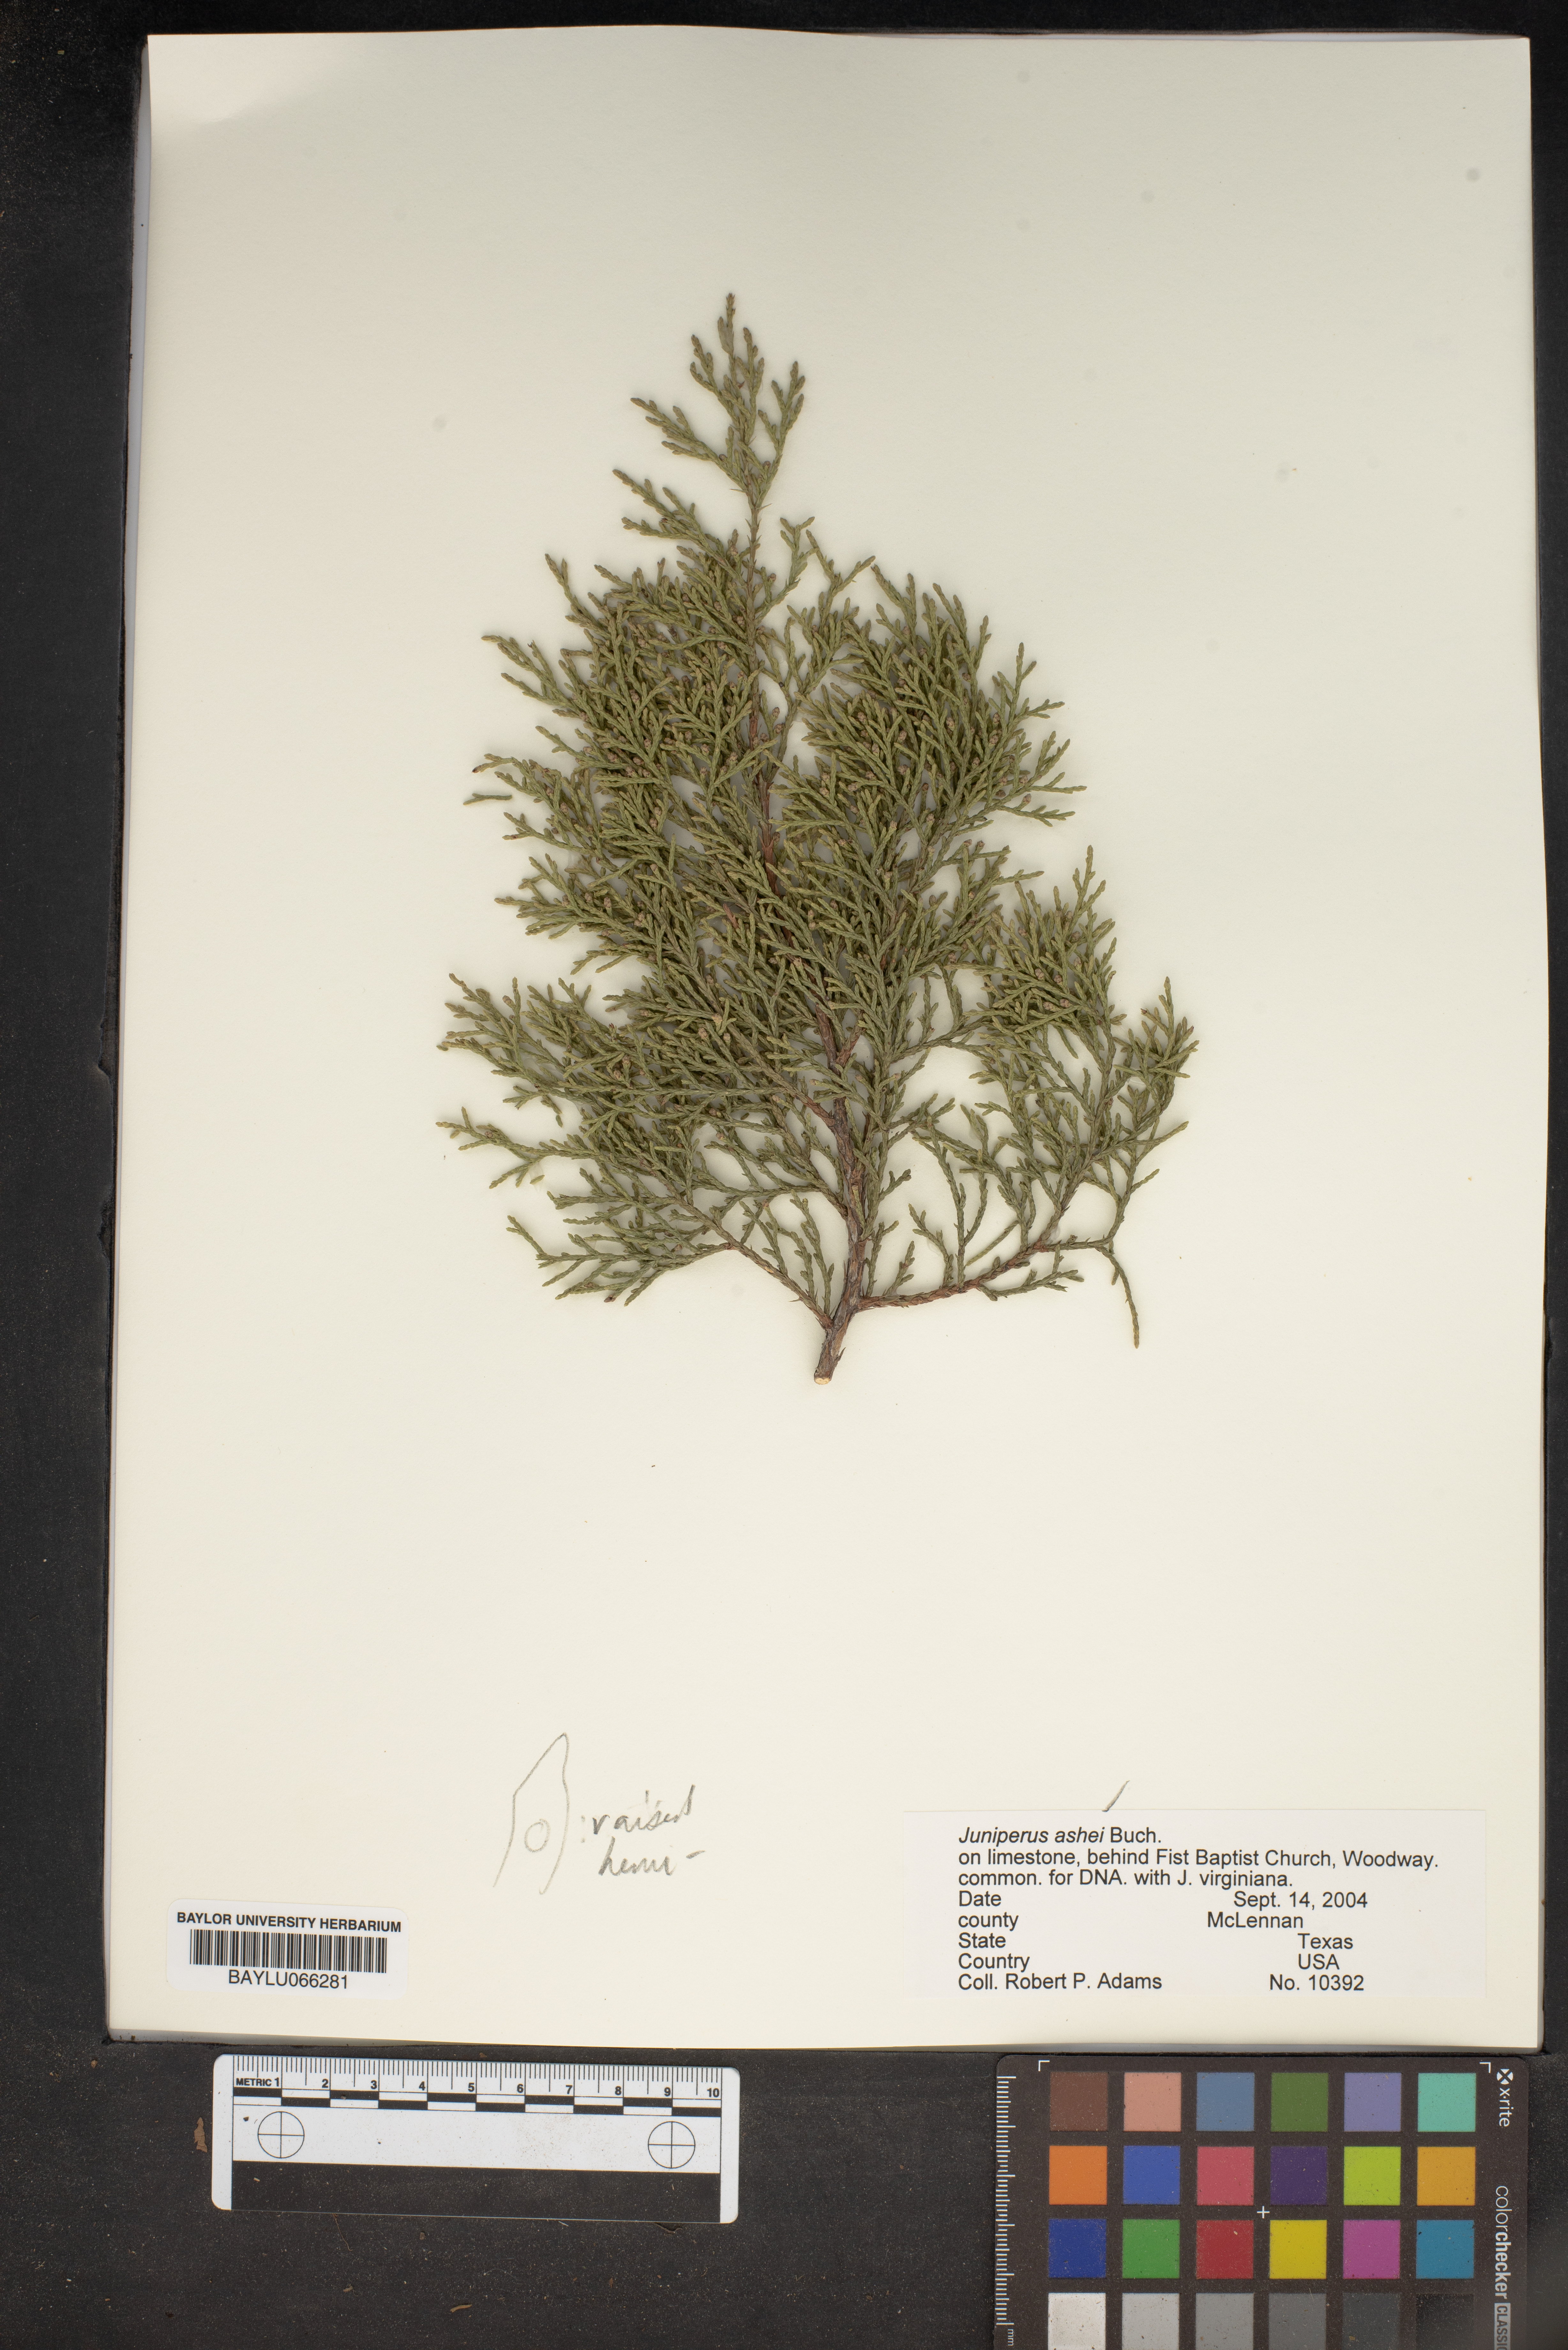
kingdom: Plantae
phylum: Tracheophyta
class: Pinopsida
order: Pinales
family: Cupressaceae
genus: Juniperus
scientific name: Juniperus ashei
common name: Mexican juniper
